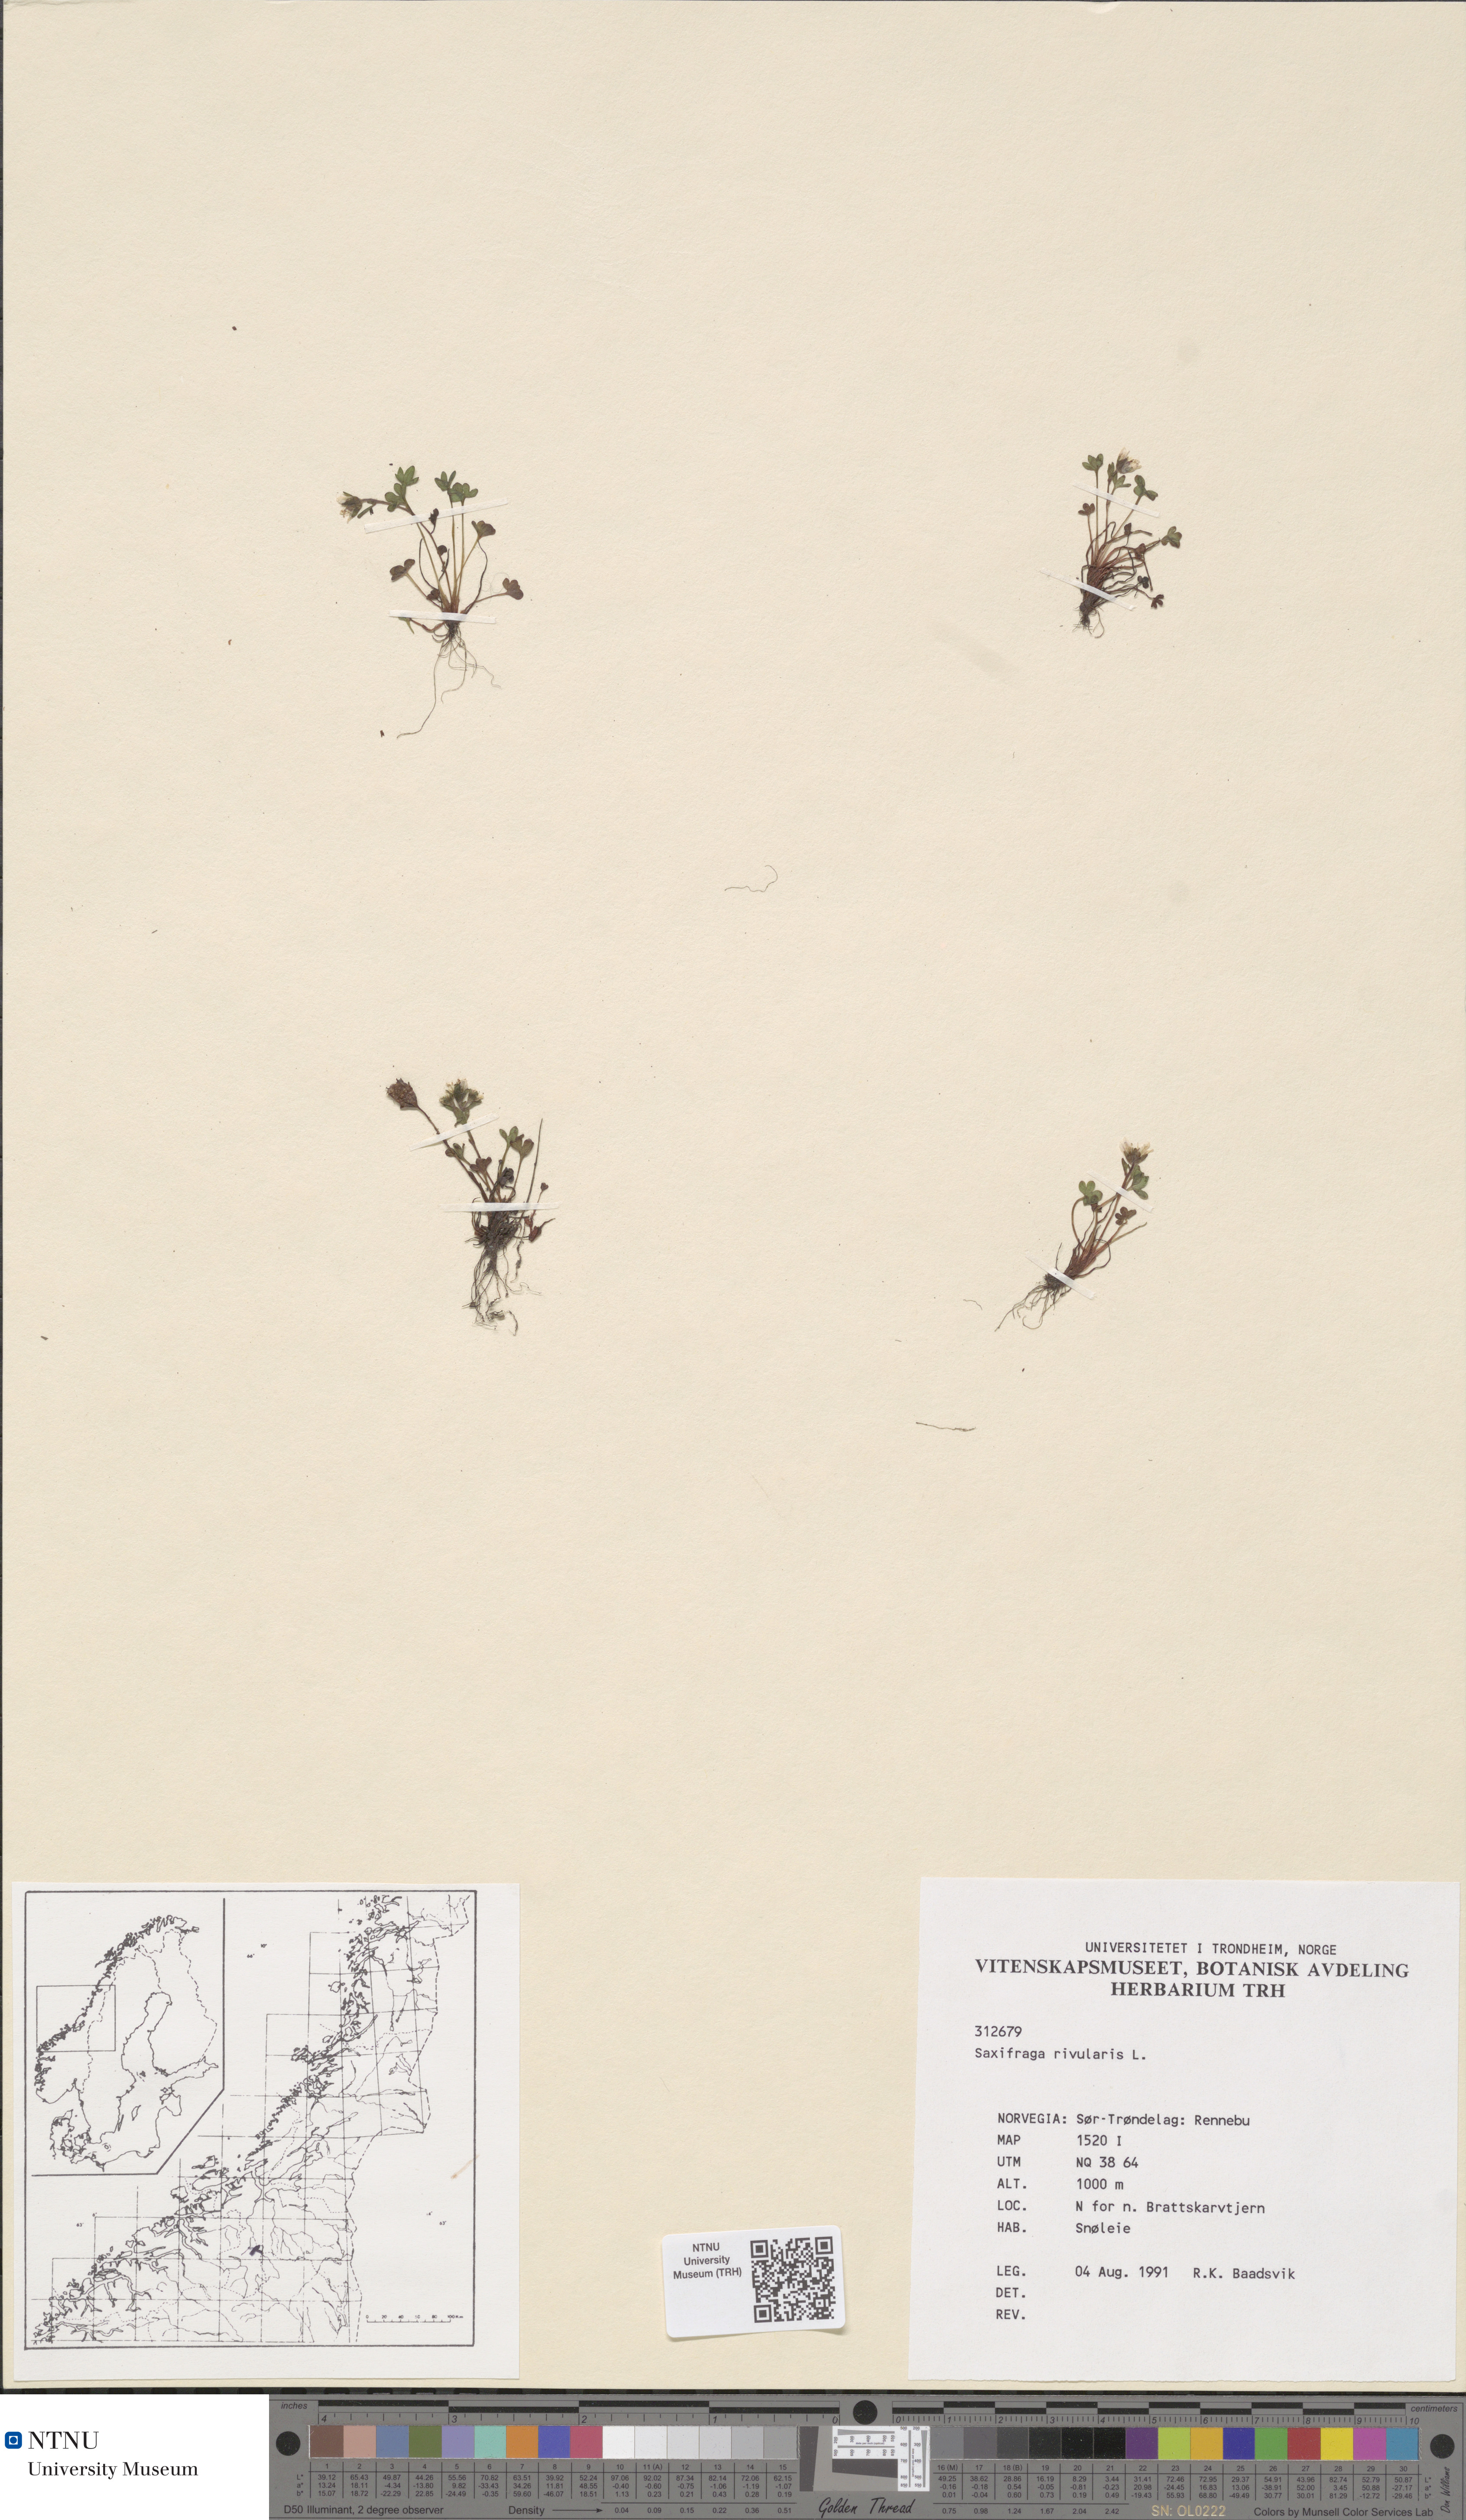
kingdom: Plantae
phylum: Tracheophyta
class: Magnoliopsida
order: Saxifragales
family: Saxifragaceae
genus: Saxifraga
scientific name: Saxifraga rivularis
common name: Highland saxifrage
